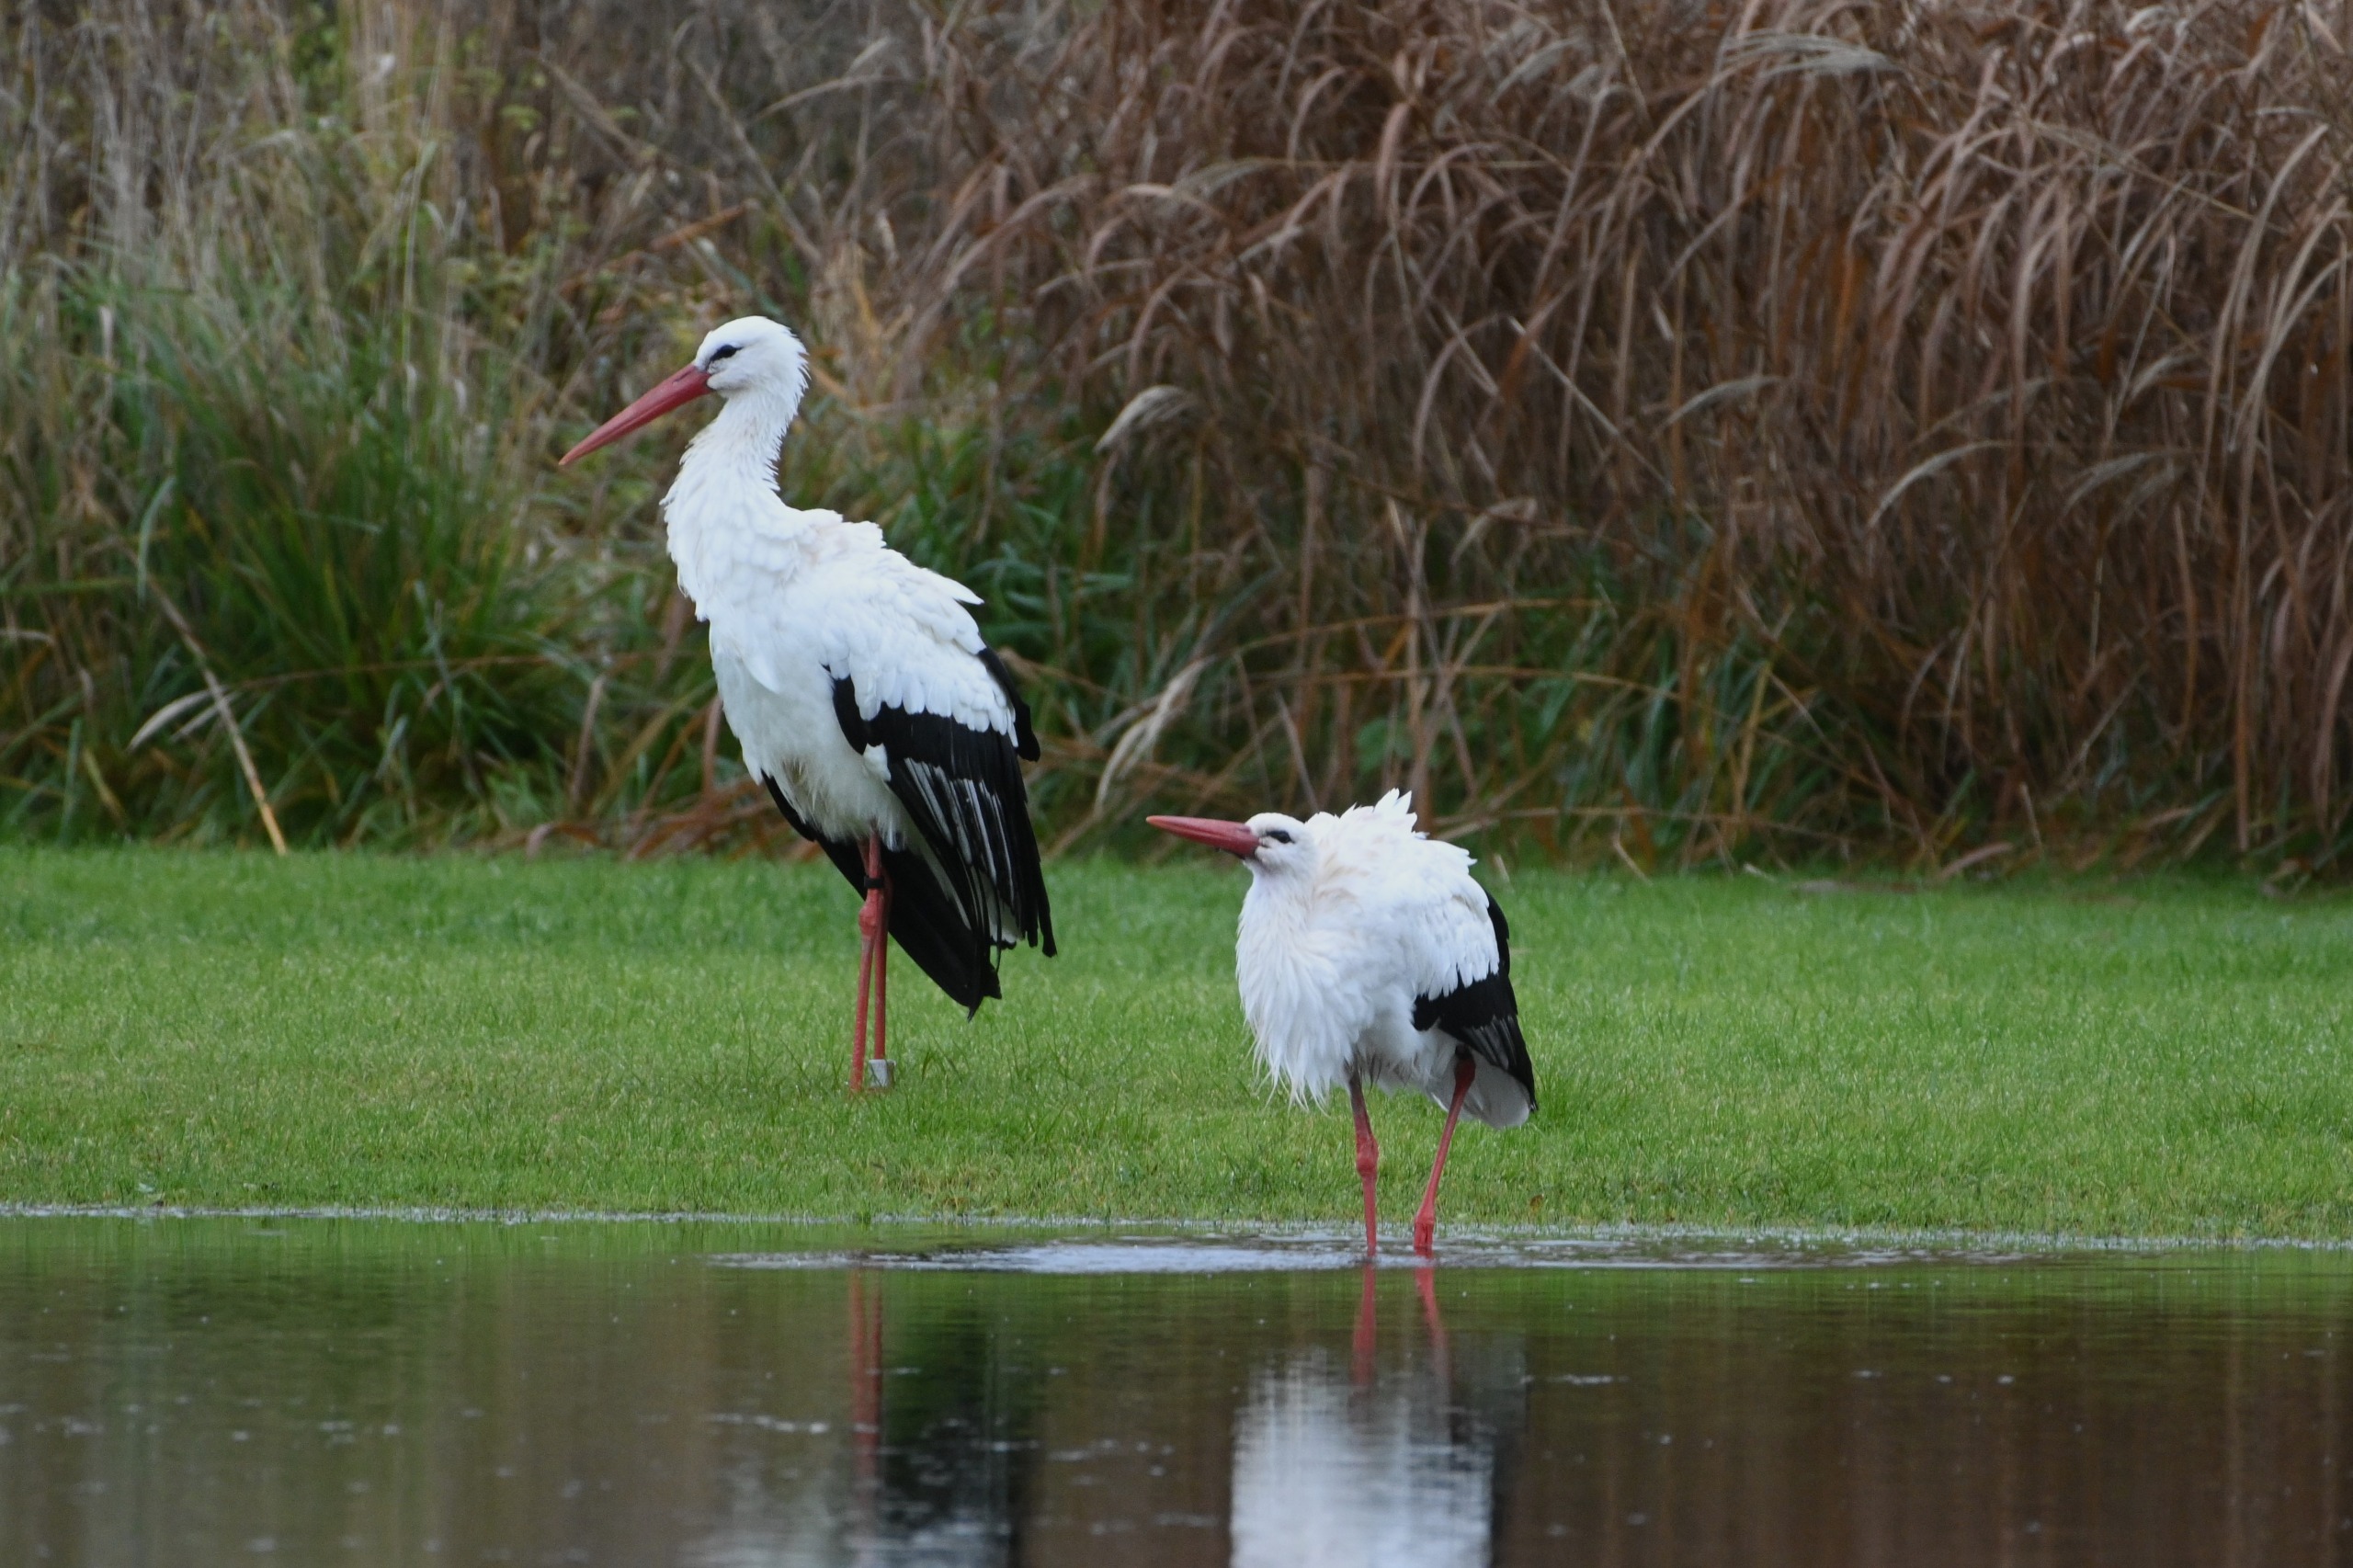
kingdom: Animalia
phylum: Chordata
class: Aves
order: Ciconiiformes
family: Ciconiidae
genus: Ciconia
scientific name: Ciconia ciconia
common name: Hvid stork
